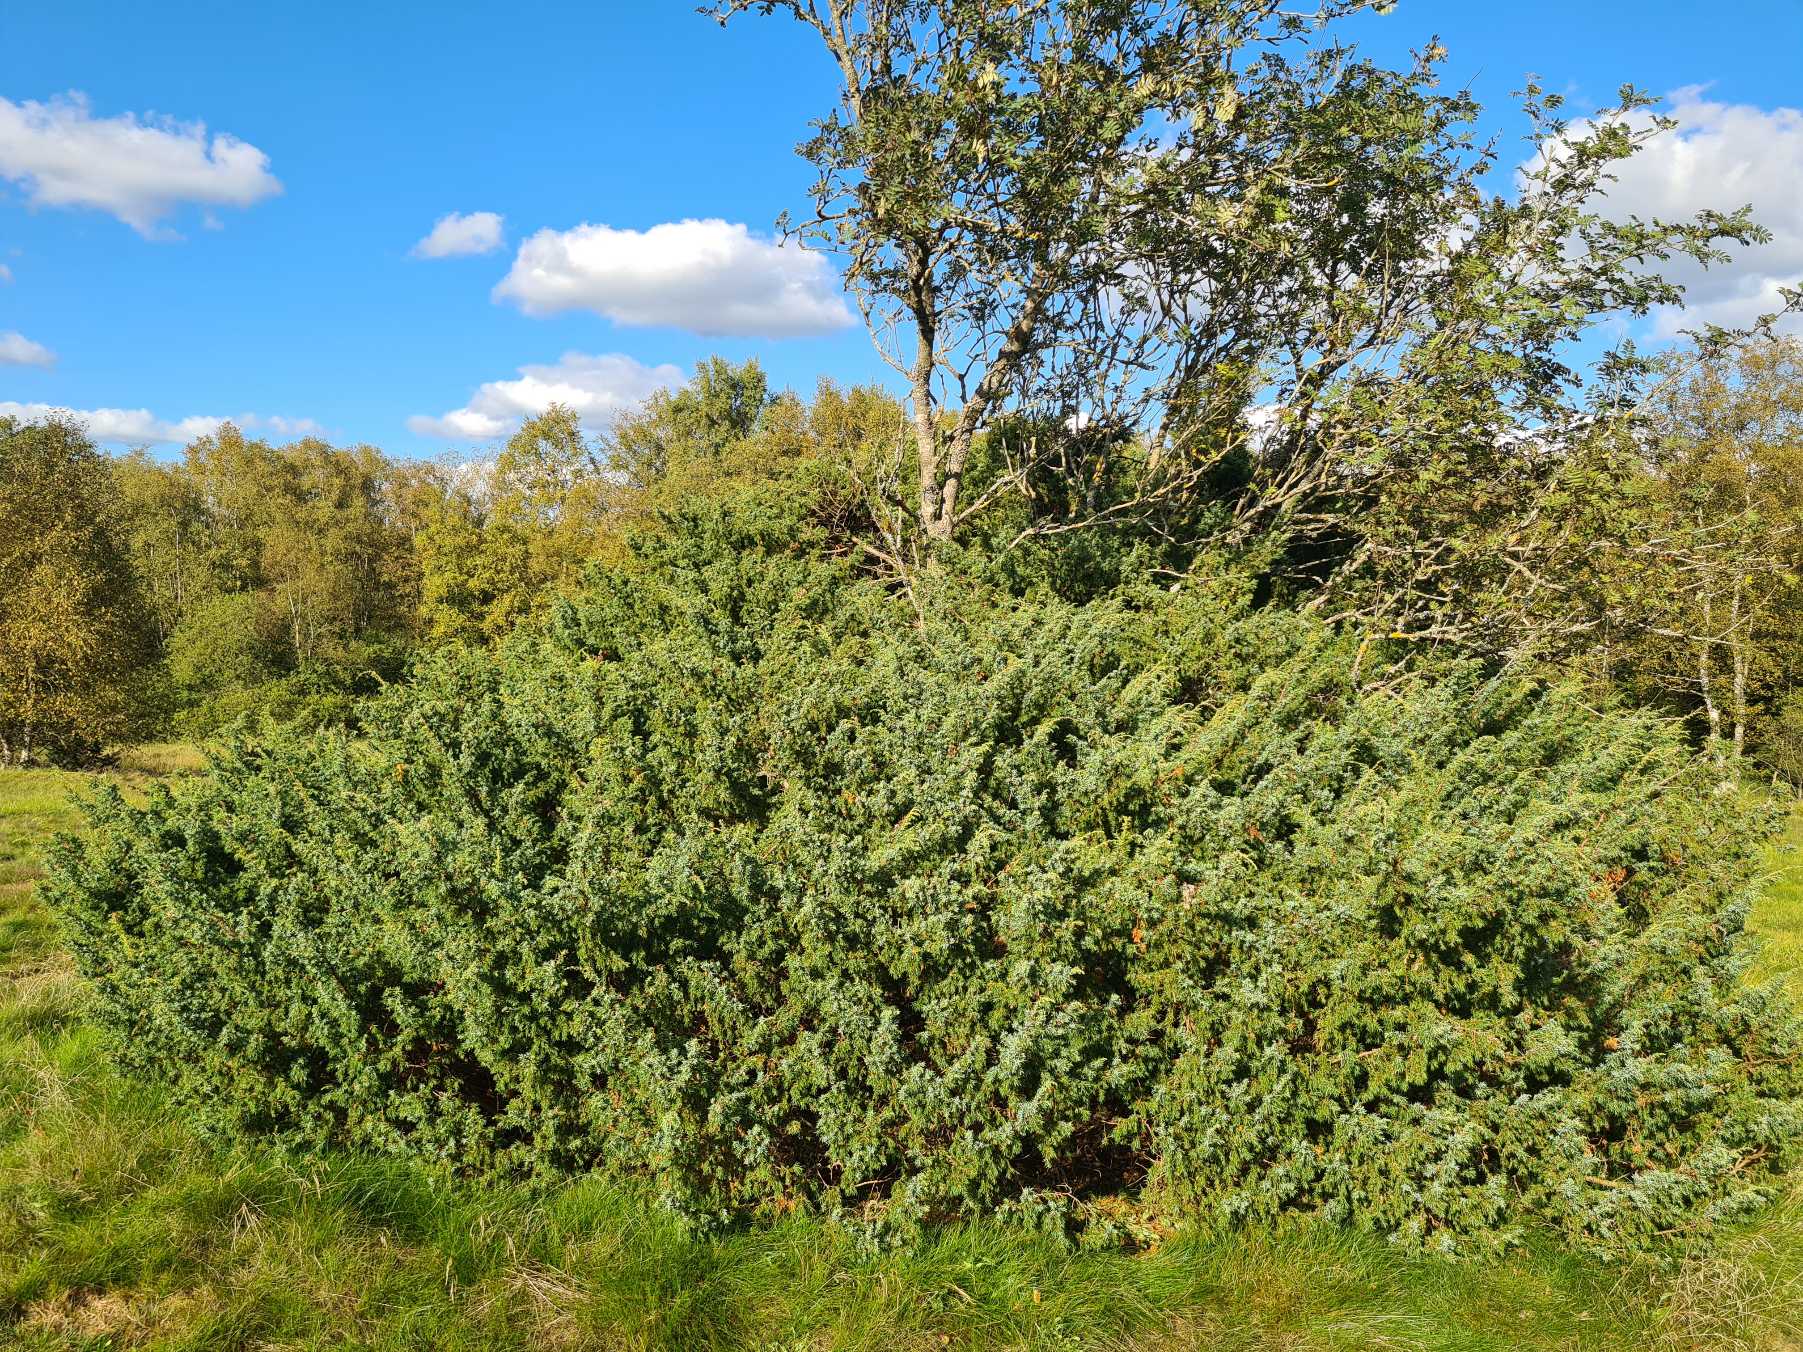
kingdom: Plantae
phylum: Tracheophyta
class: Pinopsida
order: Pinales
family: Cupressaceae
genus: Juniperus
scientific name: Juniperus communis
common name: Almindelig ene
